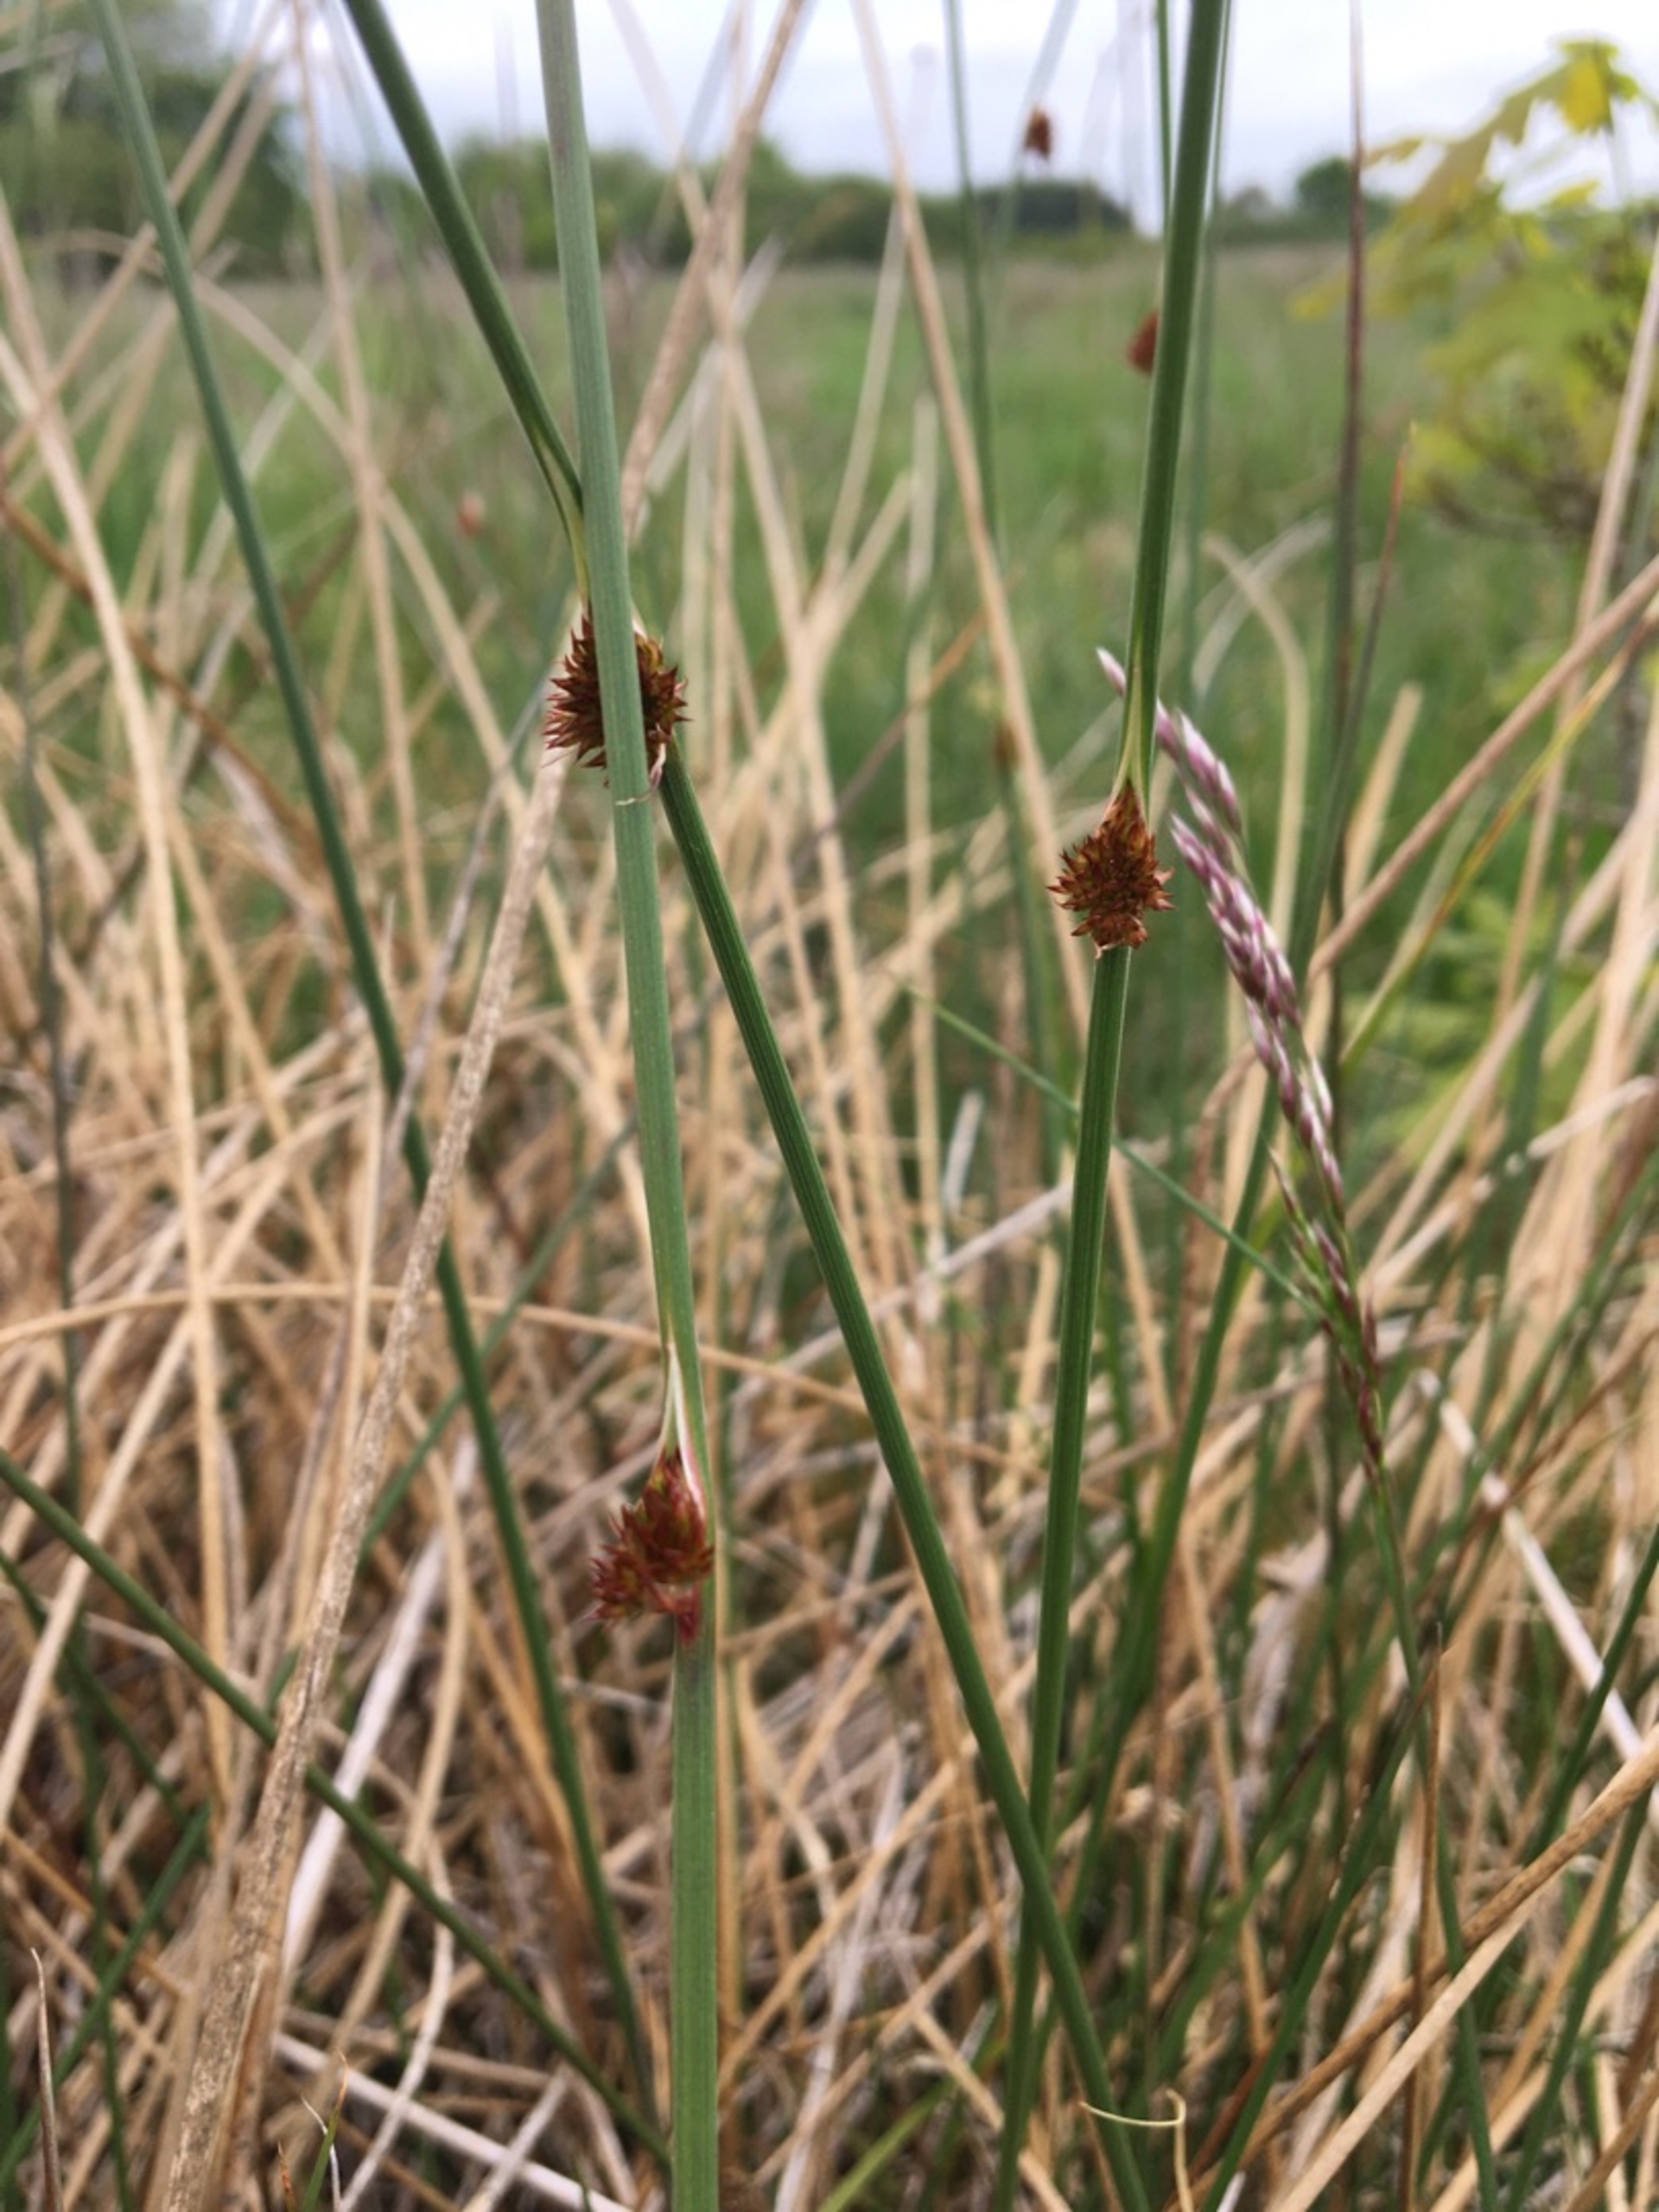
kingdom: Plantae
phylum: Tracheophyta
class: Liliopsida
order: Poales
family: Juncaceae
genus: Juncus
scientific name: Juncus conglomeratus
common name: Knop-siv
